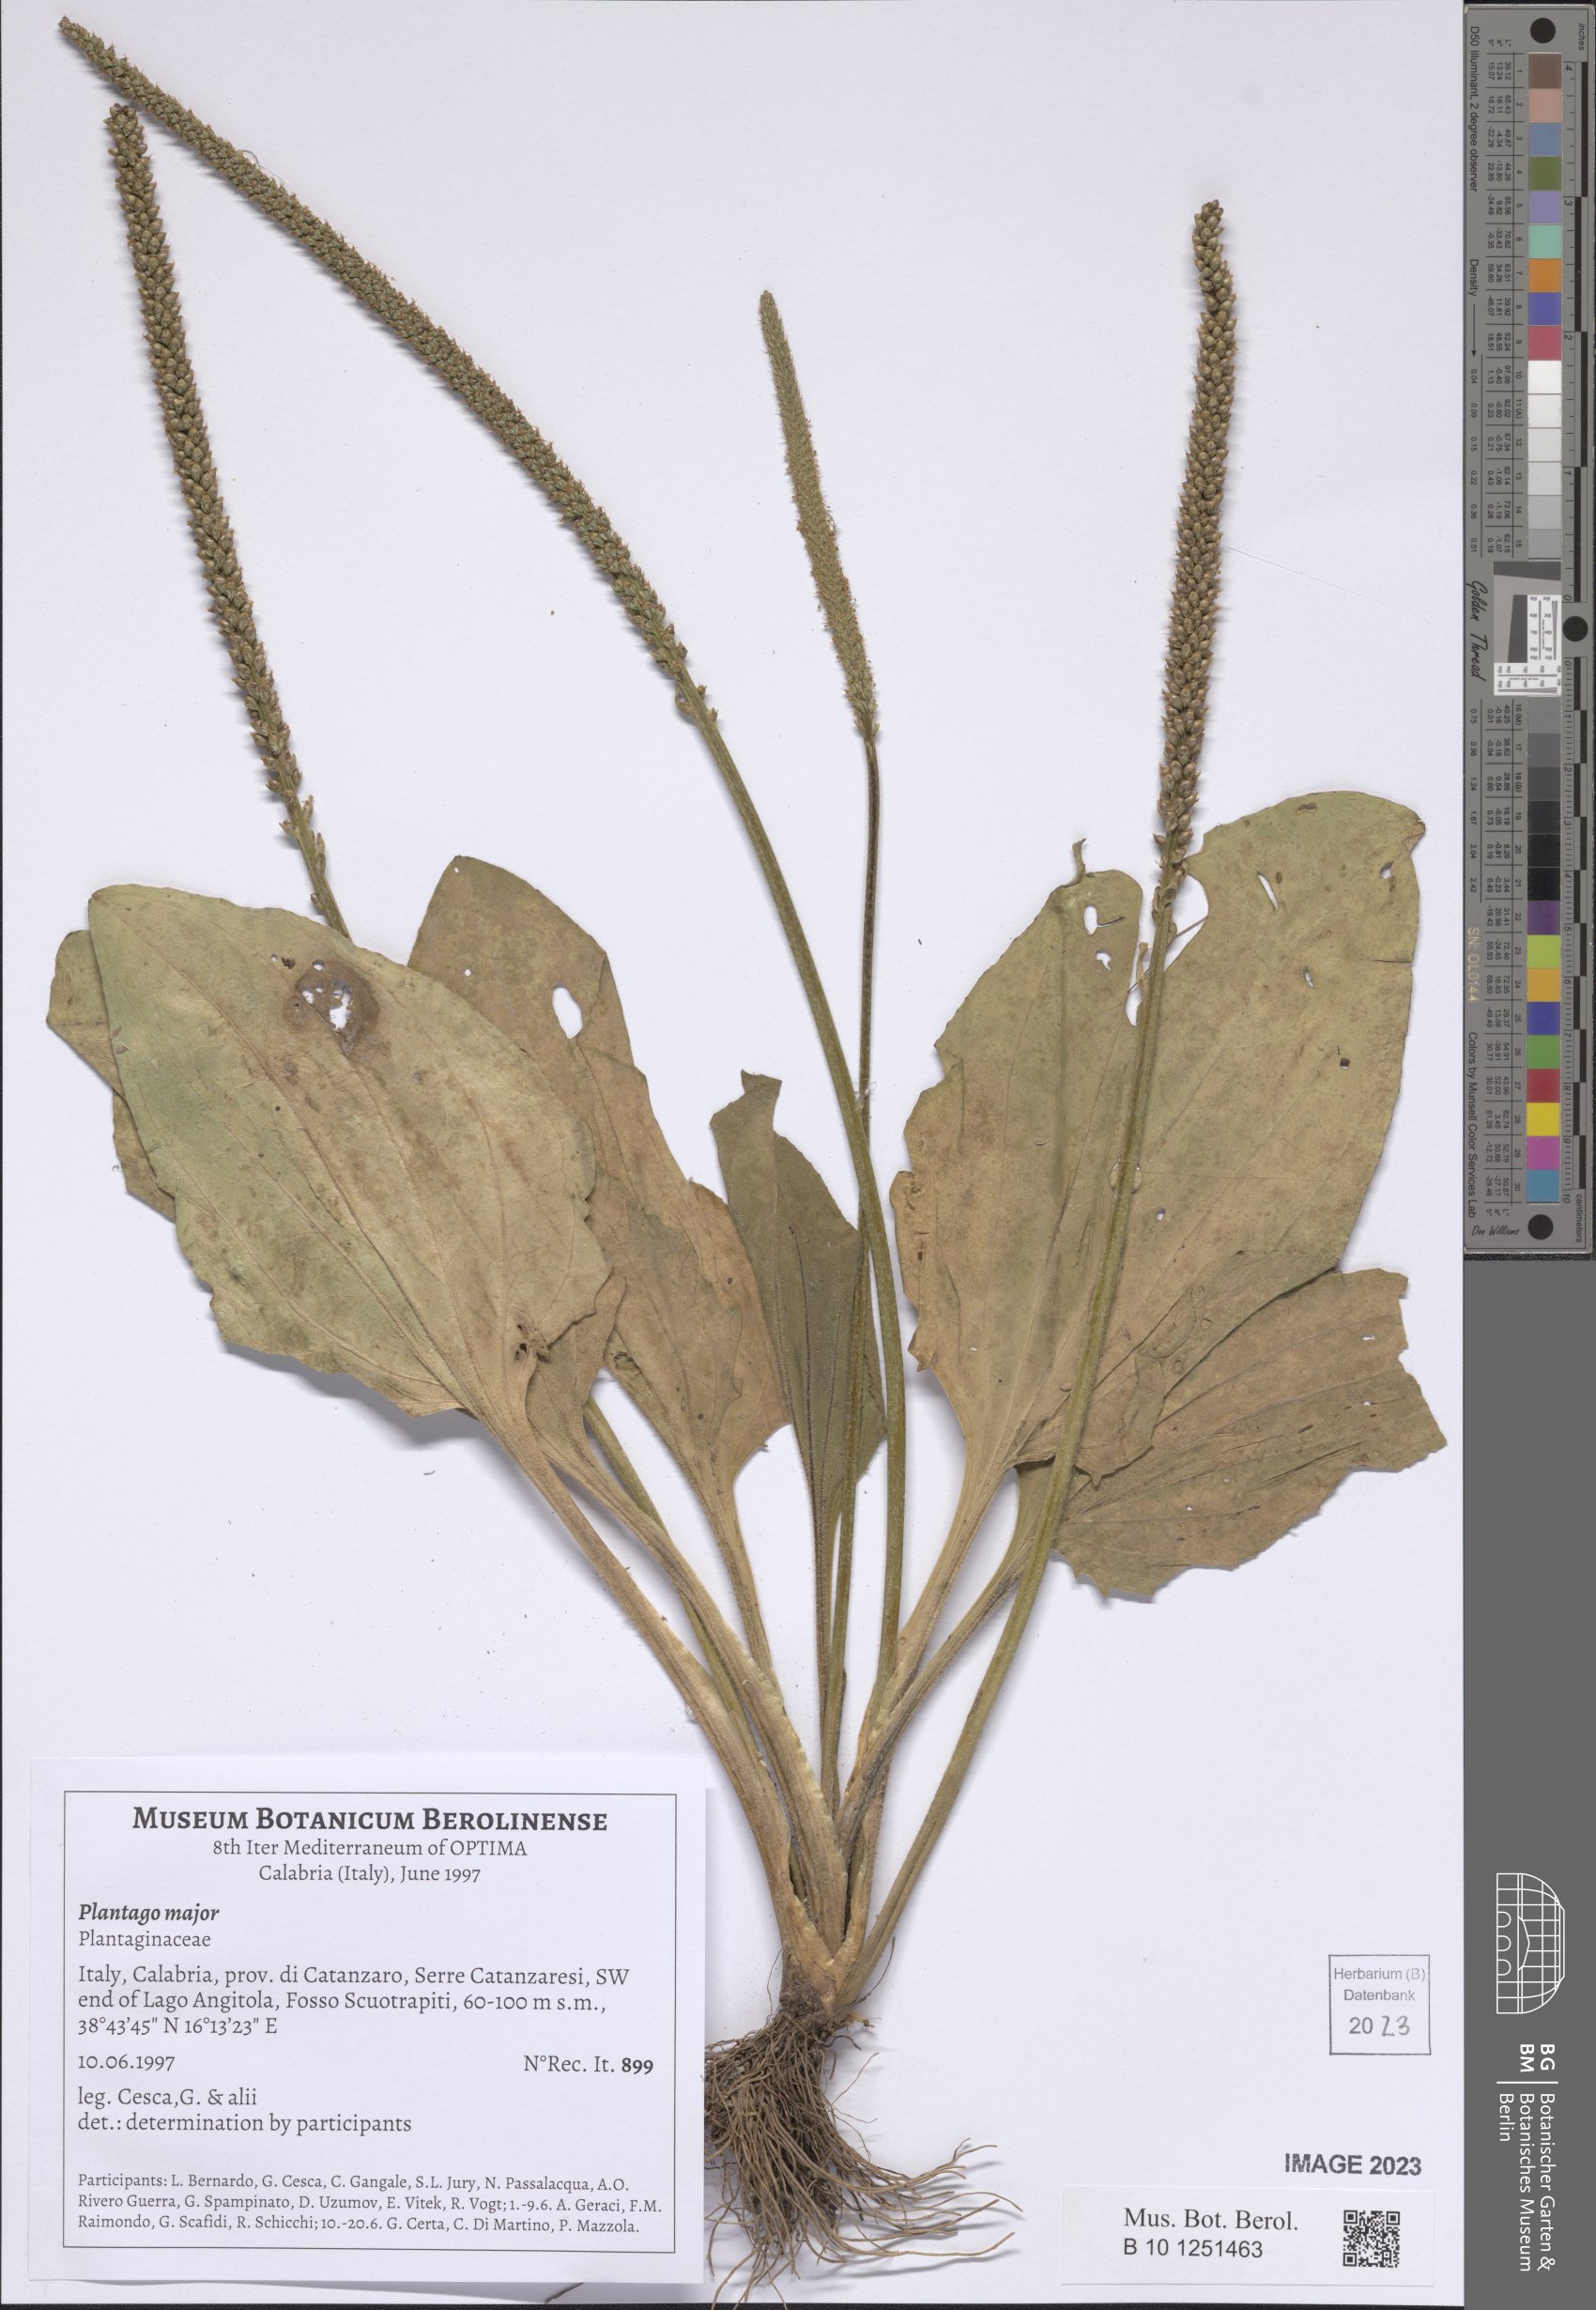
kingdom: Plantae
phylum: Tracheophyta
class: Magnoliopsida
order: Lamiales
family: Plantaginaceae
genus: Plantago
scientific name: Plantago major
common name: Common plantain
